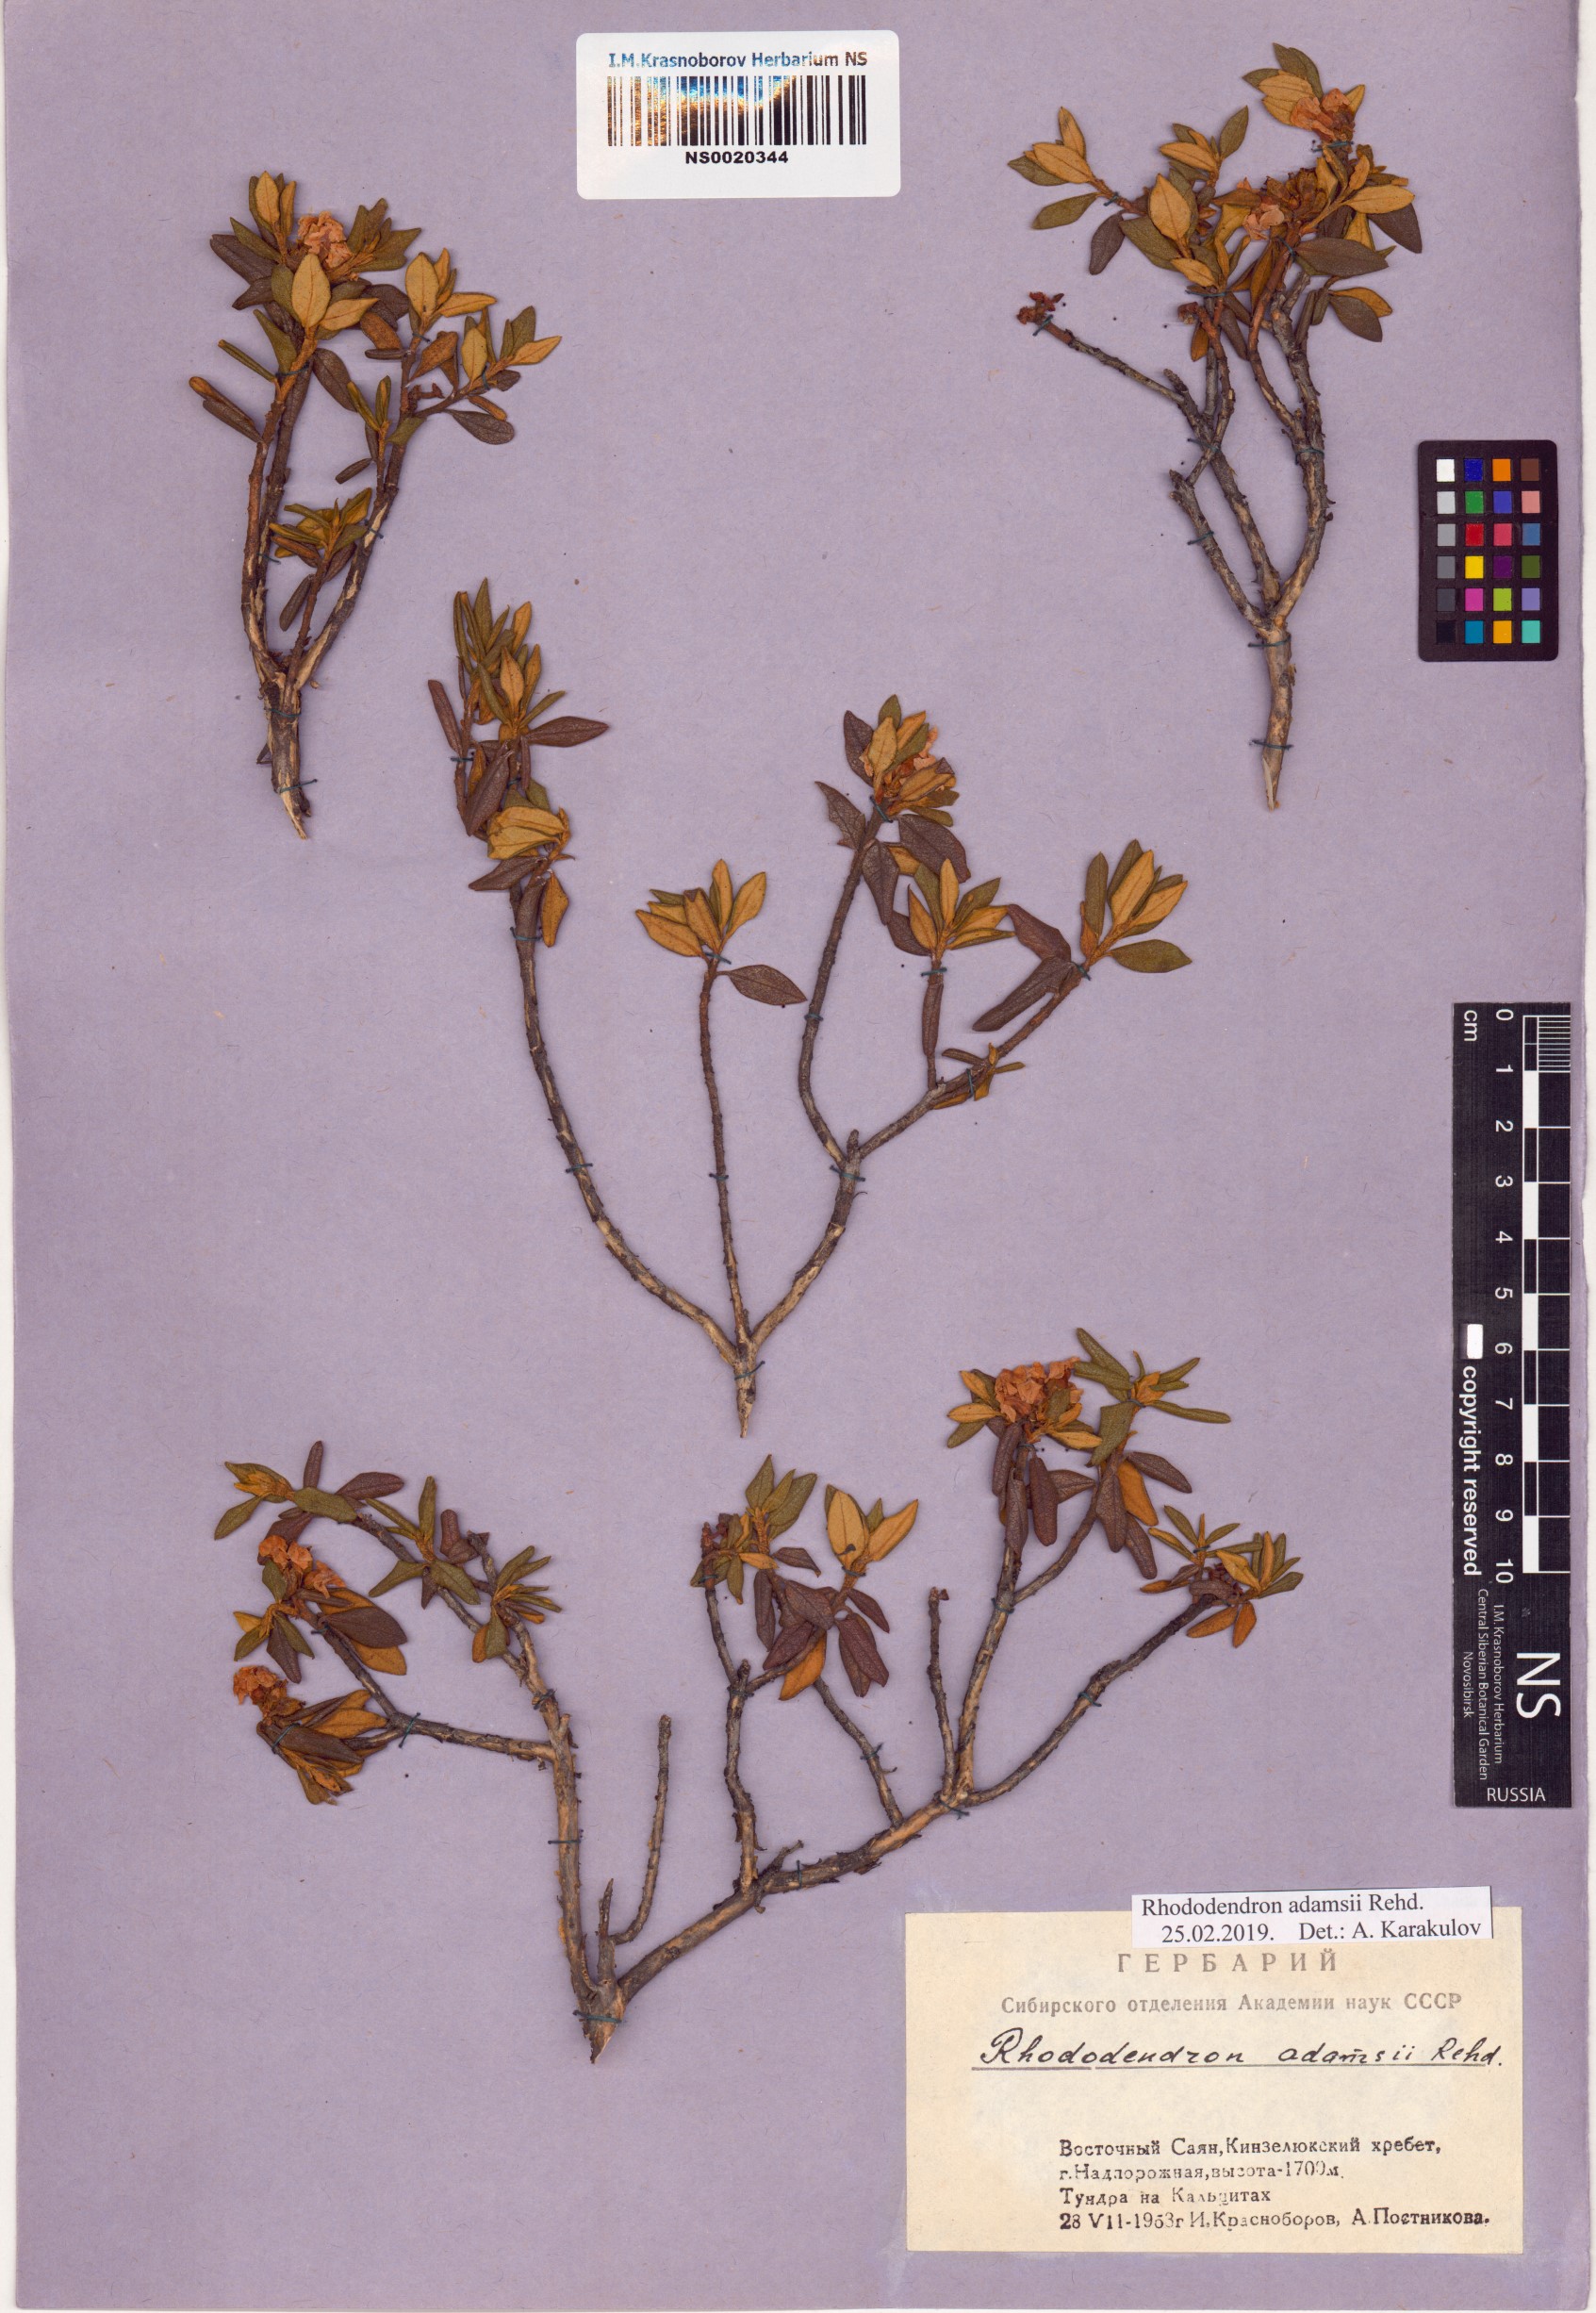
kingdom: Plantae
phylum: Tracheophyta
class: Magnoliopsida
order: Ericales
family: Ericaceae
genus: Rhododendron
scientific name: Rhododendron adamsii
